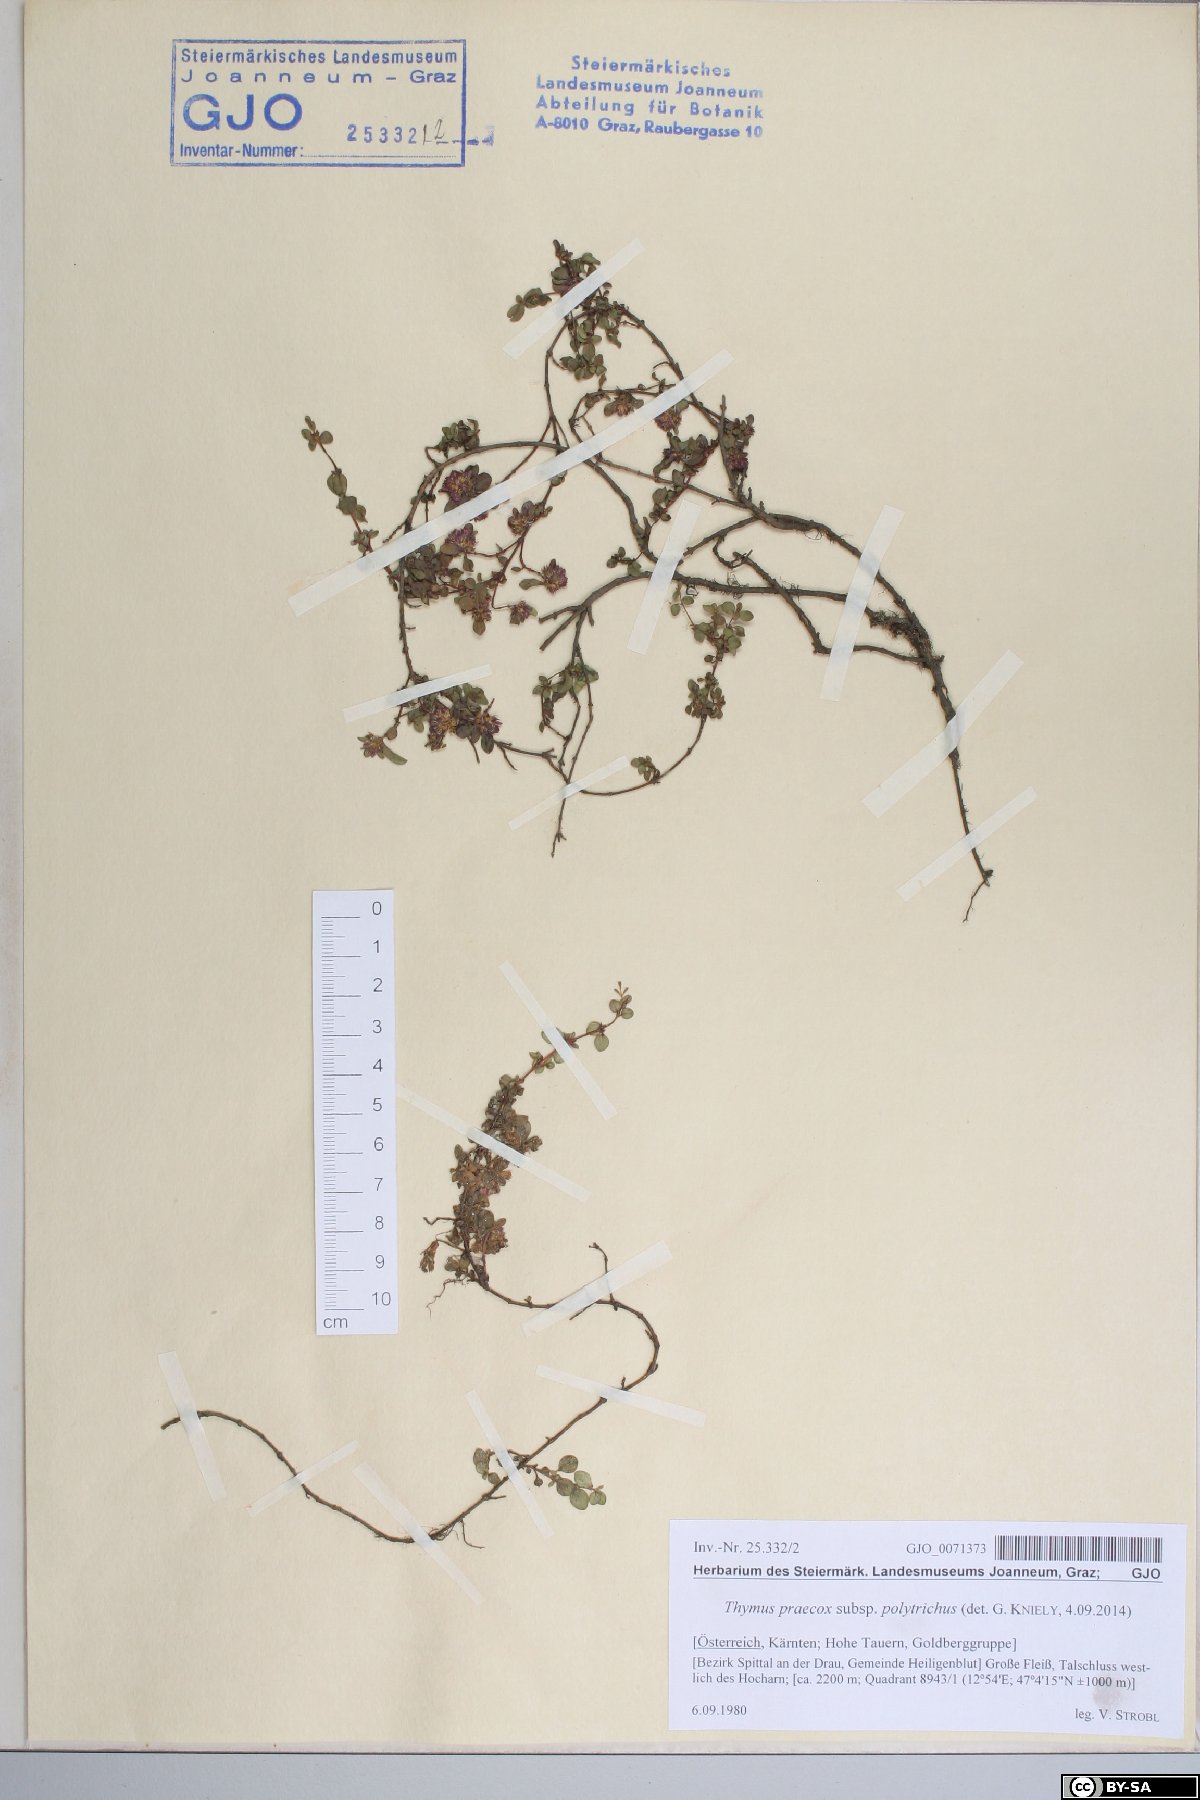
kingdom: Plantae
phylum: Tracheophyta
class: Magnoliopsida
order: Lamiales
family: Lamiaceae
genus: Thymus
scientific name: Thymus praecox
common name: Wild thyme
